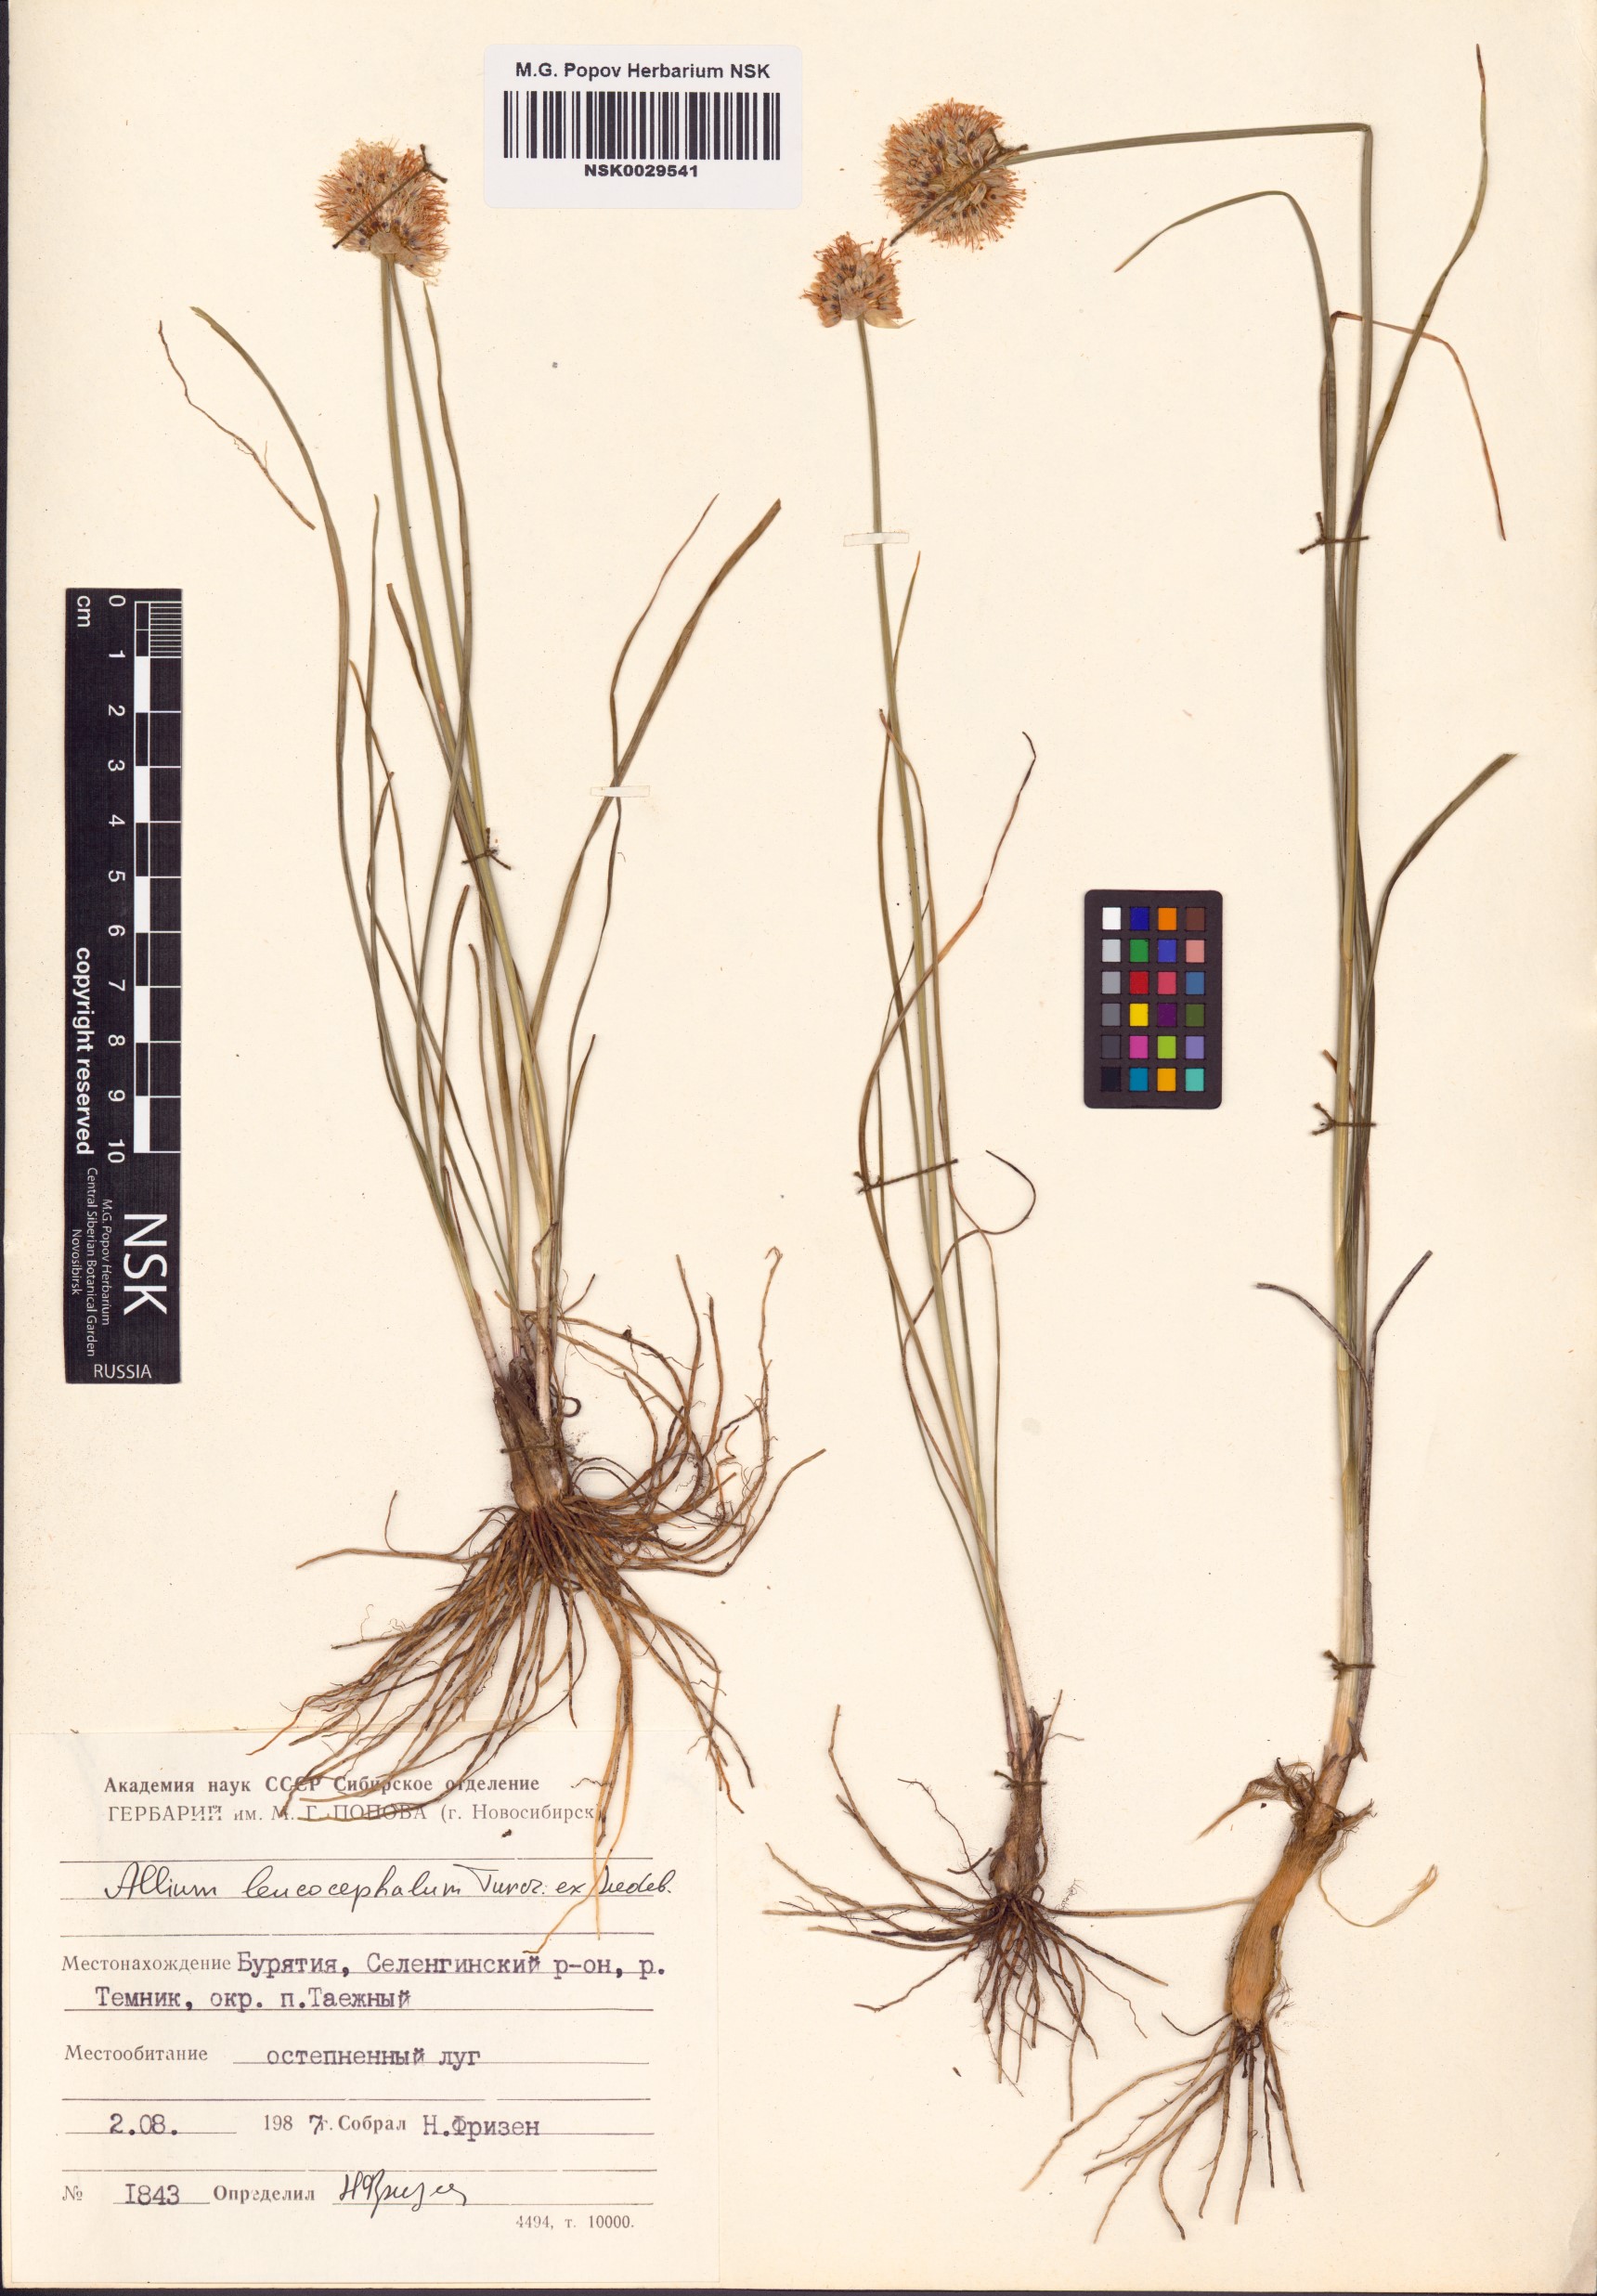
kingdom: Plantae
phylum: Tracheophyta
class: Liliopsida
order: Asparagales
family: Amaryllidaceae
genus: Allium
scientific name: Allium leucocephalum
